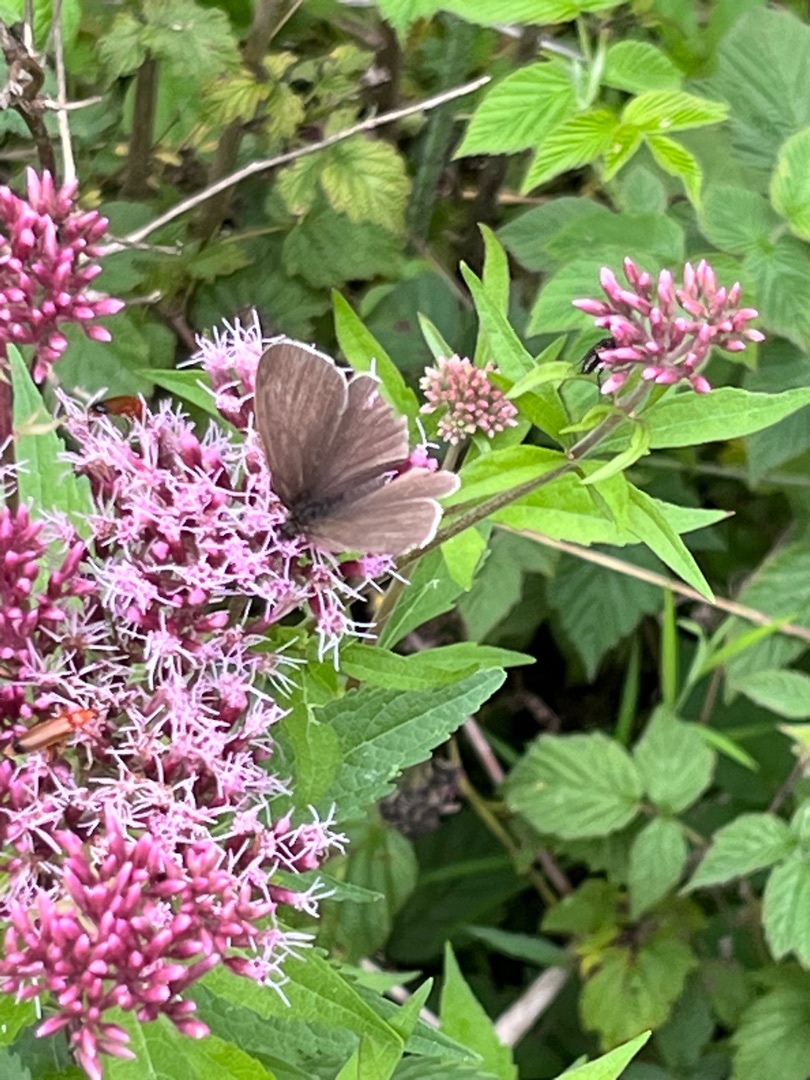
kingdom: Animalia
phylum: Arthropoda
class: Insecta
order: Lepidoptera
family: Nymphalidae
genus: Aphantopus
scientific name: Aphantopus hyperantus
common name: Engrandøje
